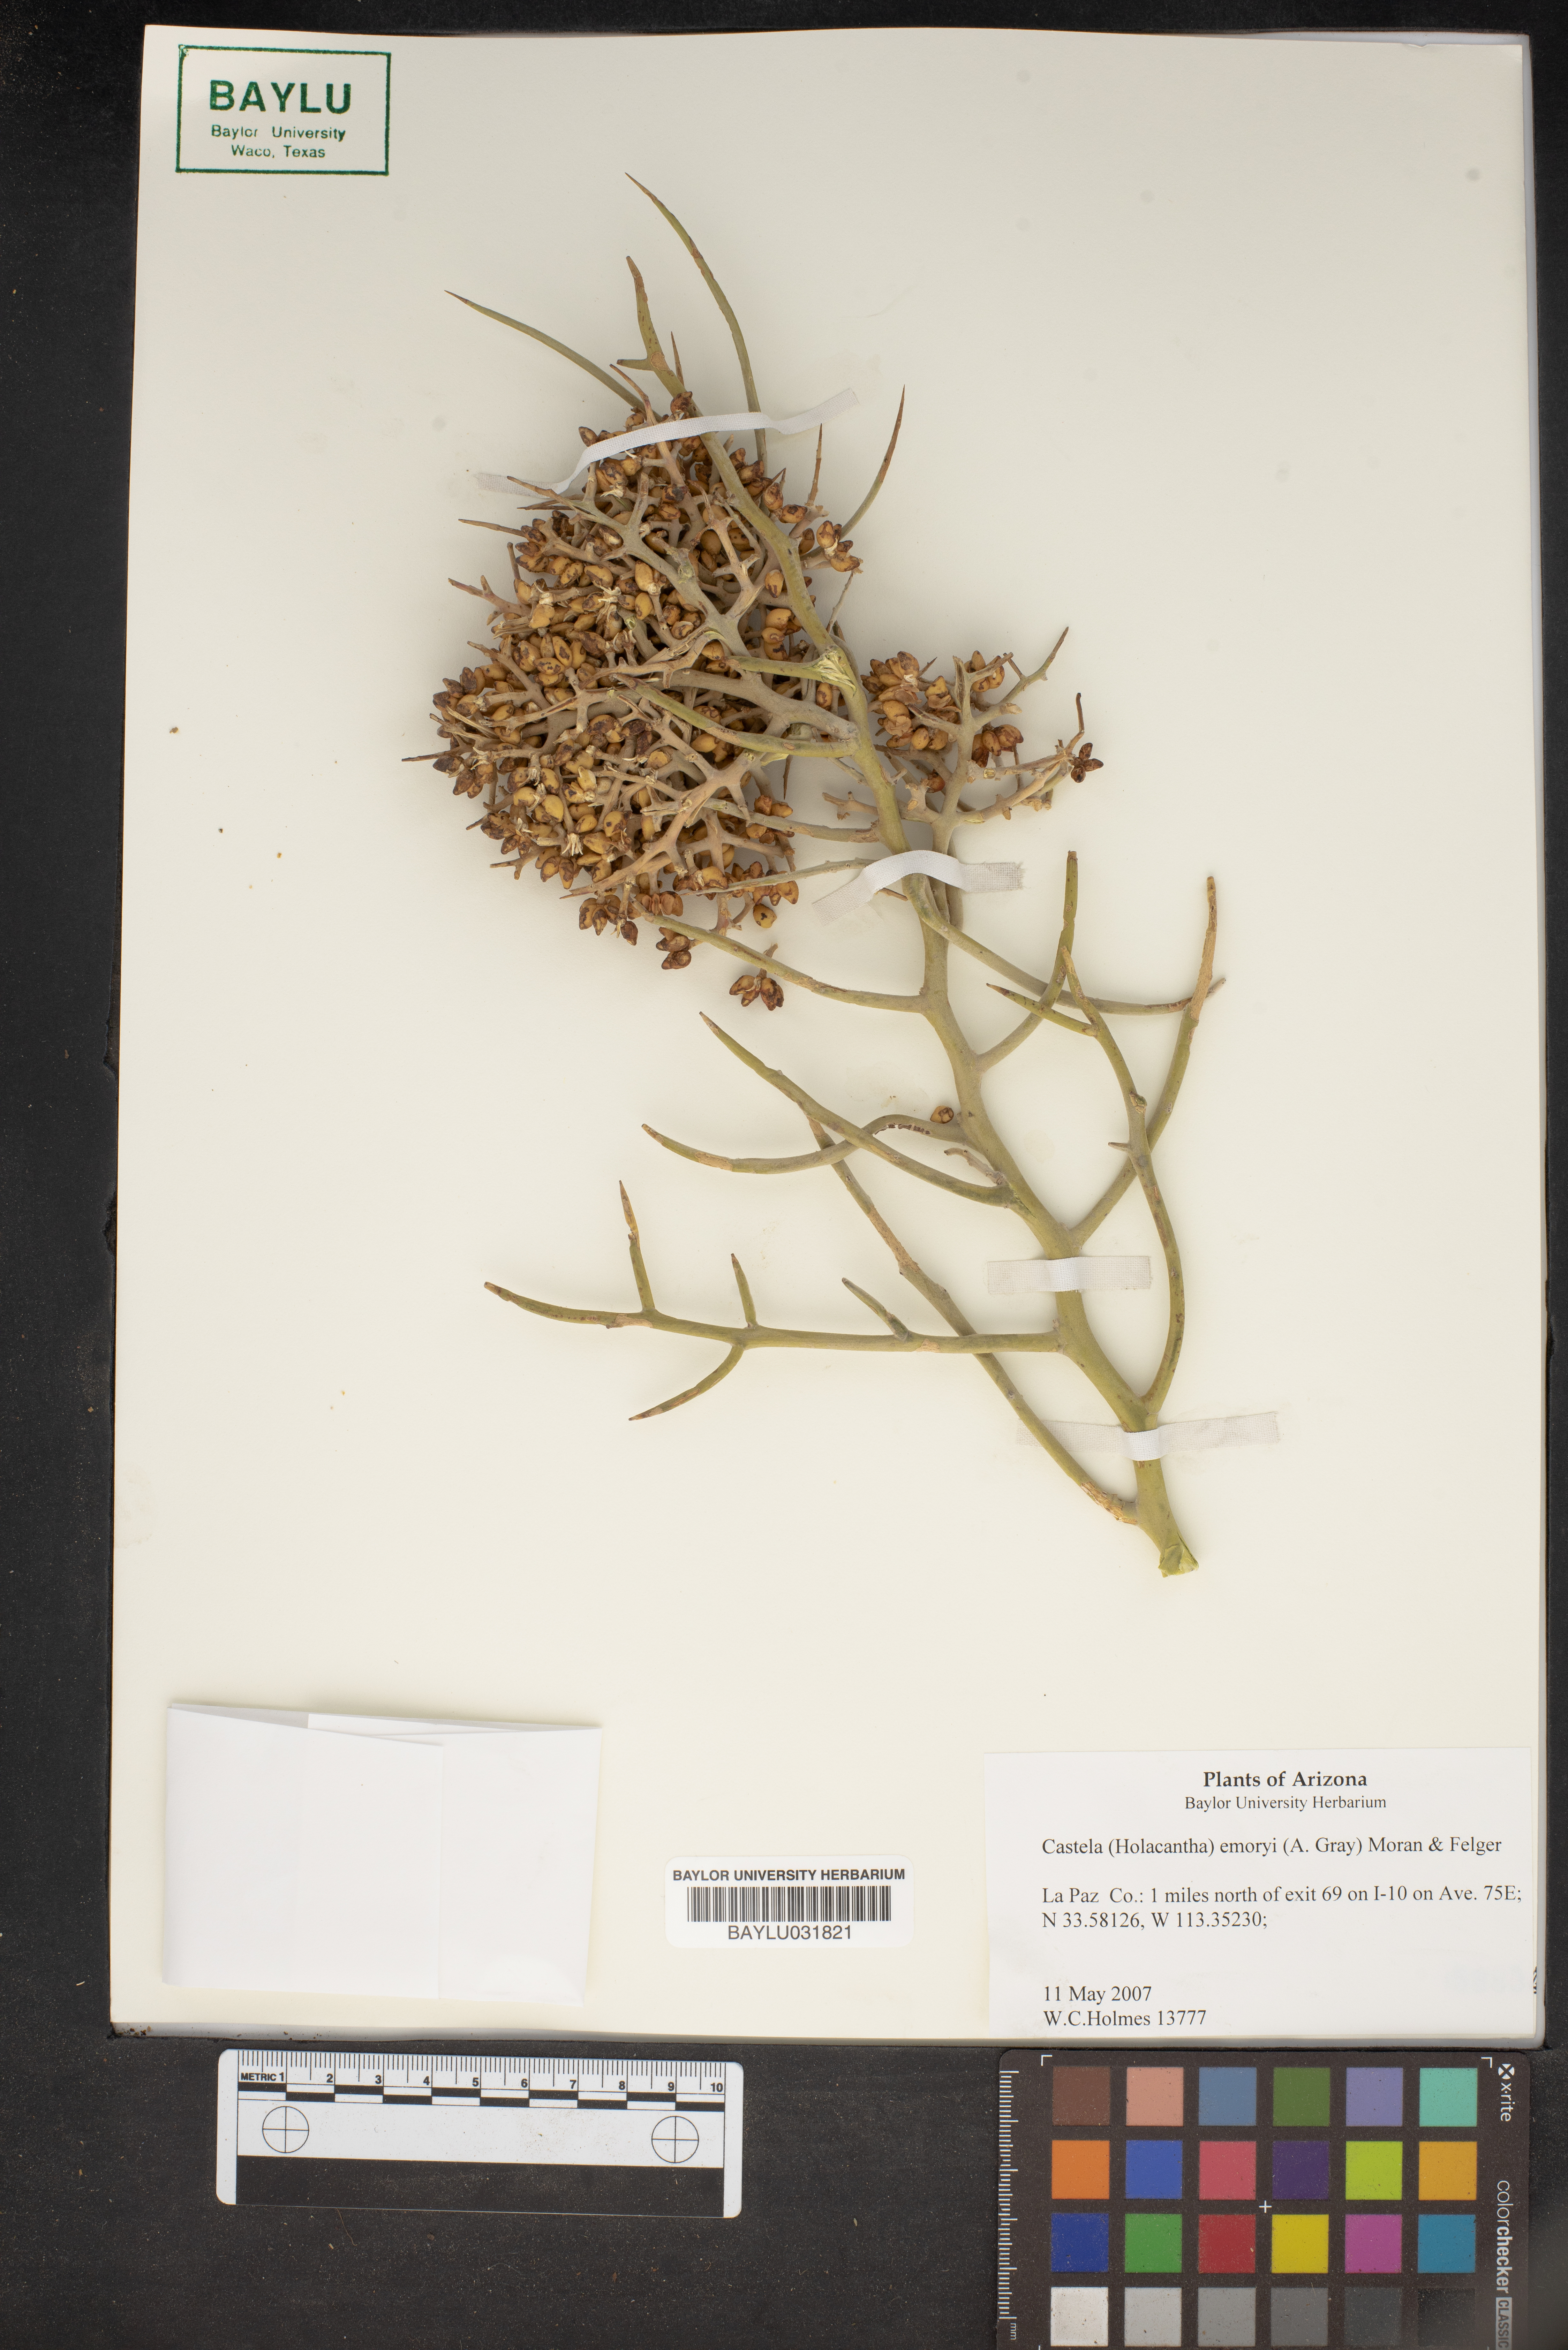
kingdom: Plantae
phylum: Tracheophyta
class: Magnoliopsida
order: Sapindales
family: Simaroubaceae
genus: Holacantha
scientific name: Holacantha emoryi
